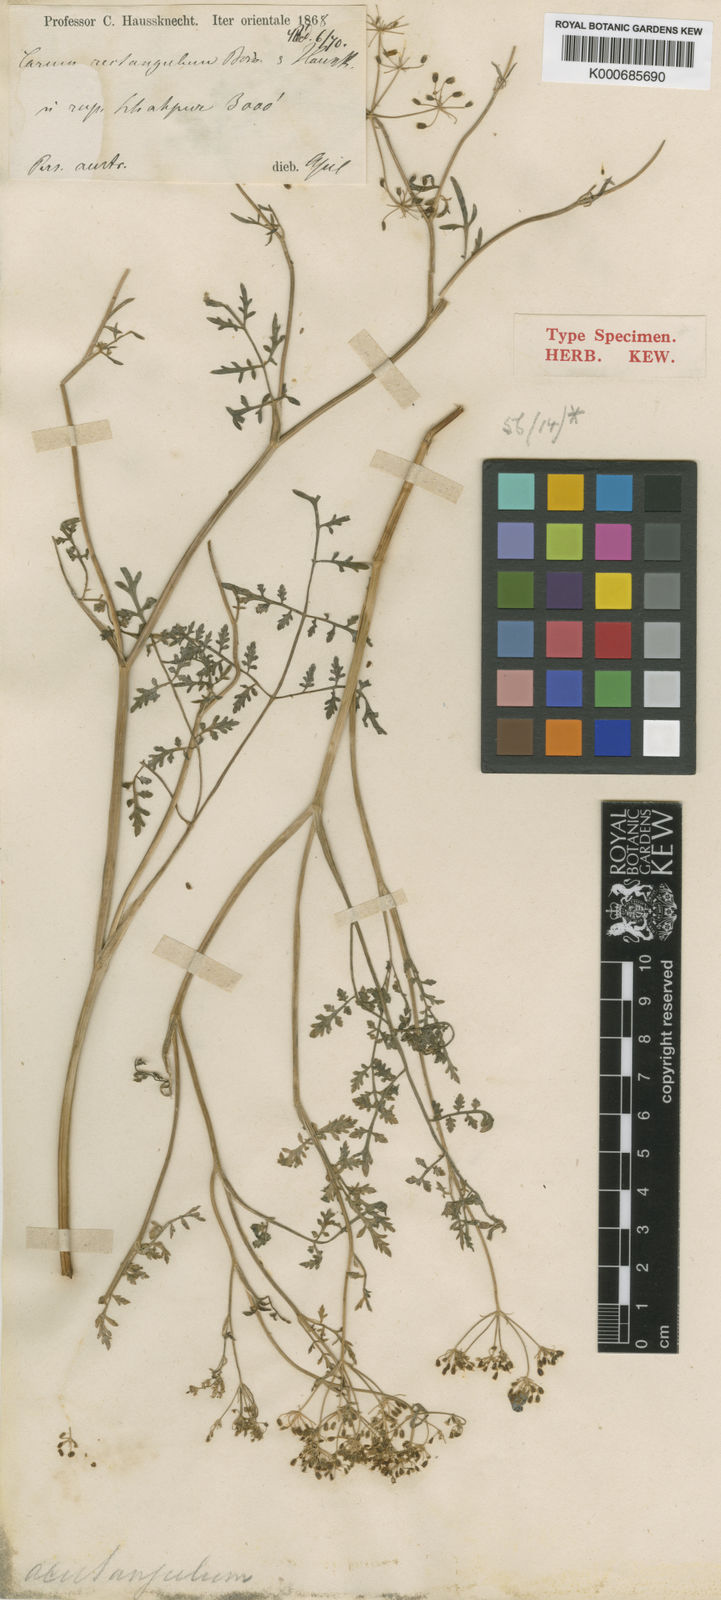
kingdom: Plantae
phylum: Tracheophyta
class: Magnoliopsida
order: Apiales
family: Apiaceae
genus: Bunium
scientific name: Bunium
